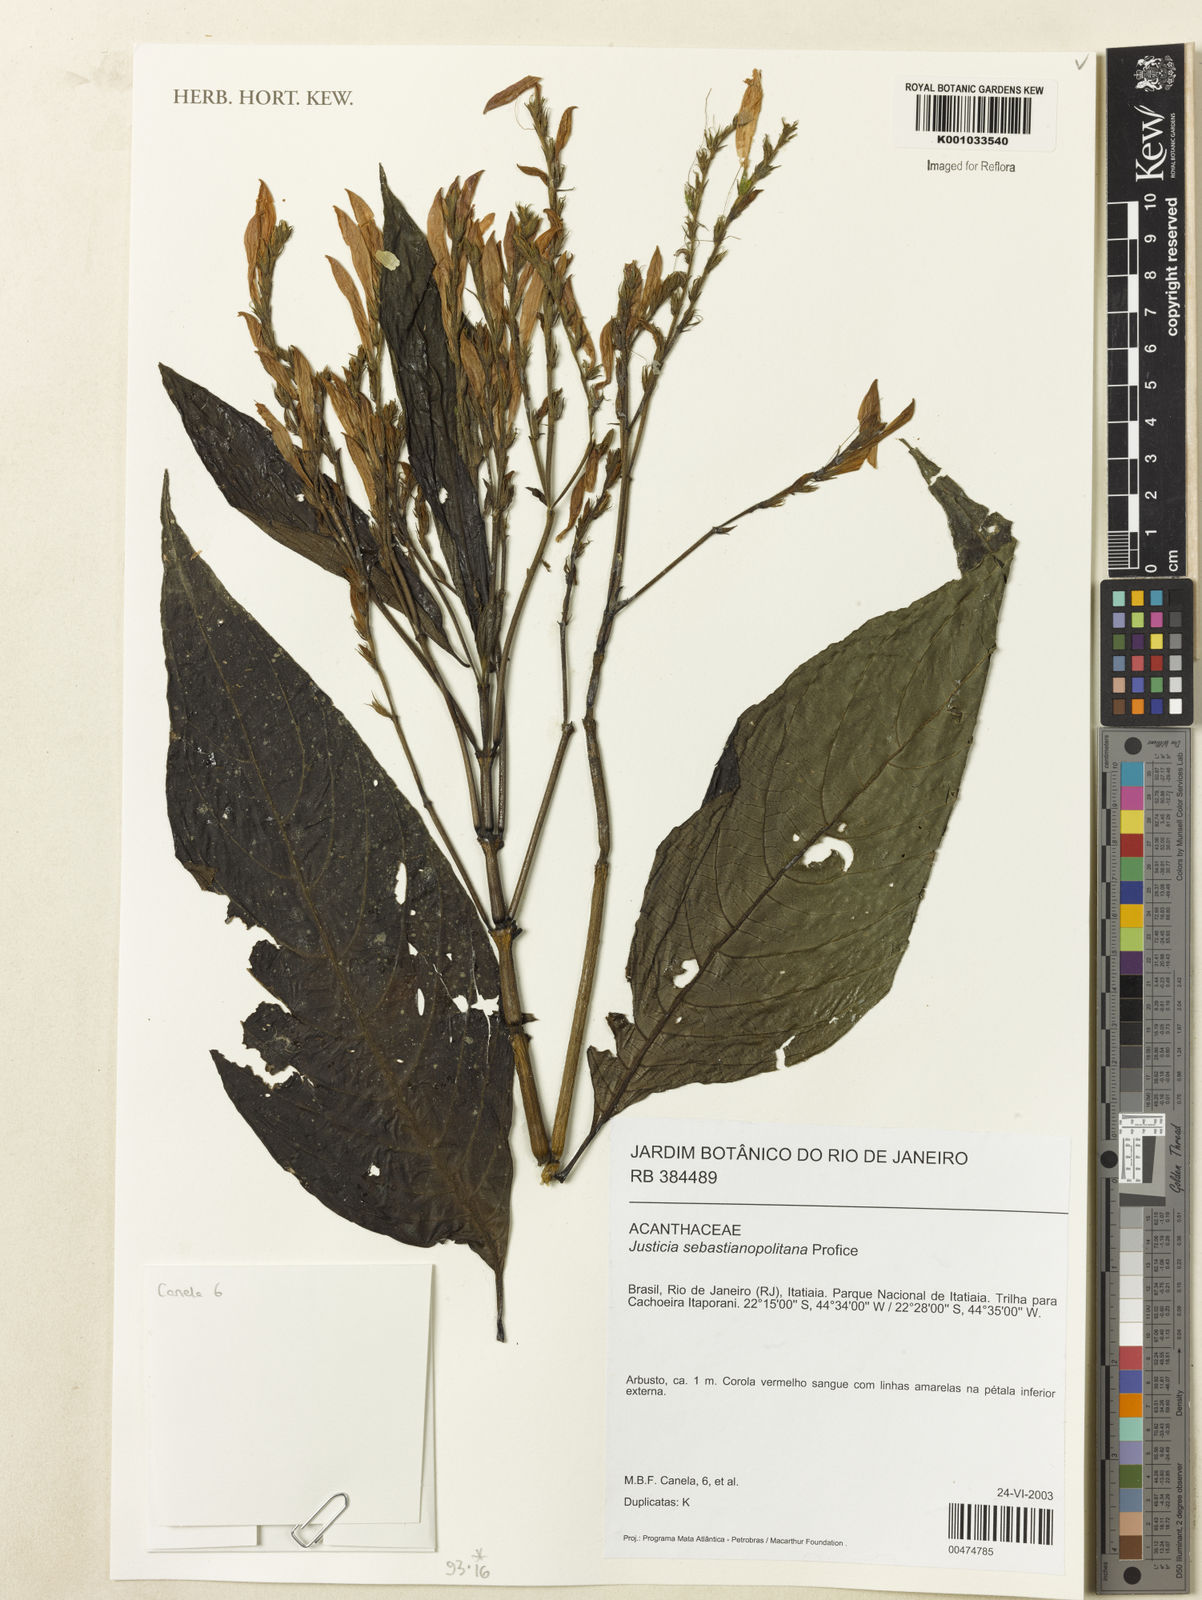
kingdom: Plantae
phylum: Tracheophyta
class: Magnoliopsida
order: Lamiales
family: Acanthaceae
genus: Justicia
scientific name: Justicia sebastianopolitanae
